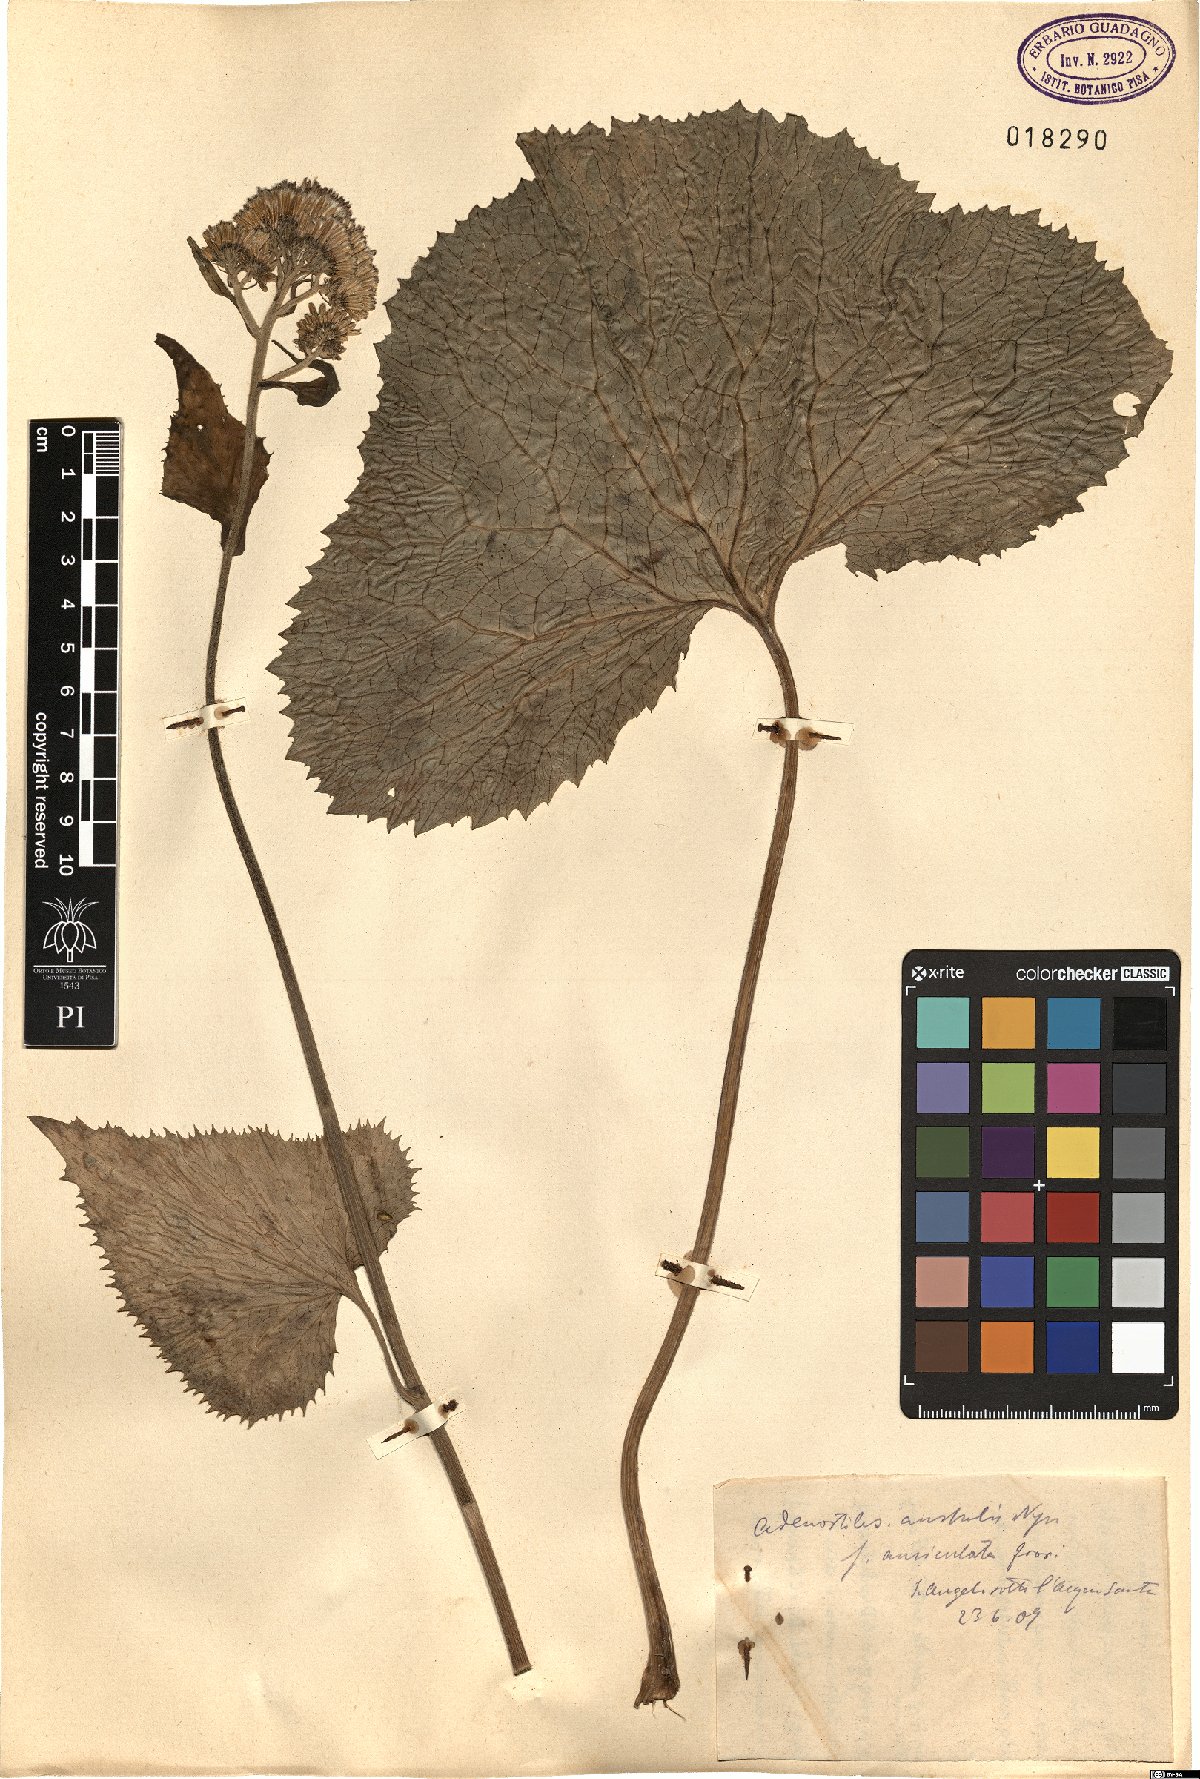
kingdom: Plantae
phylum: Tracheophyta
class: Magnoliopsida
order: Asterales
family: Asteraceae
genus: Adenostyles
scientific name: Adenostyles australis
